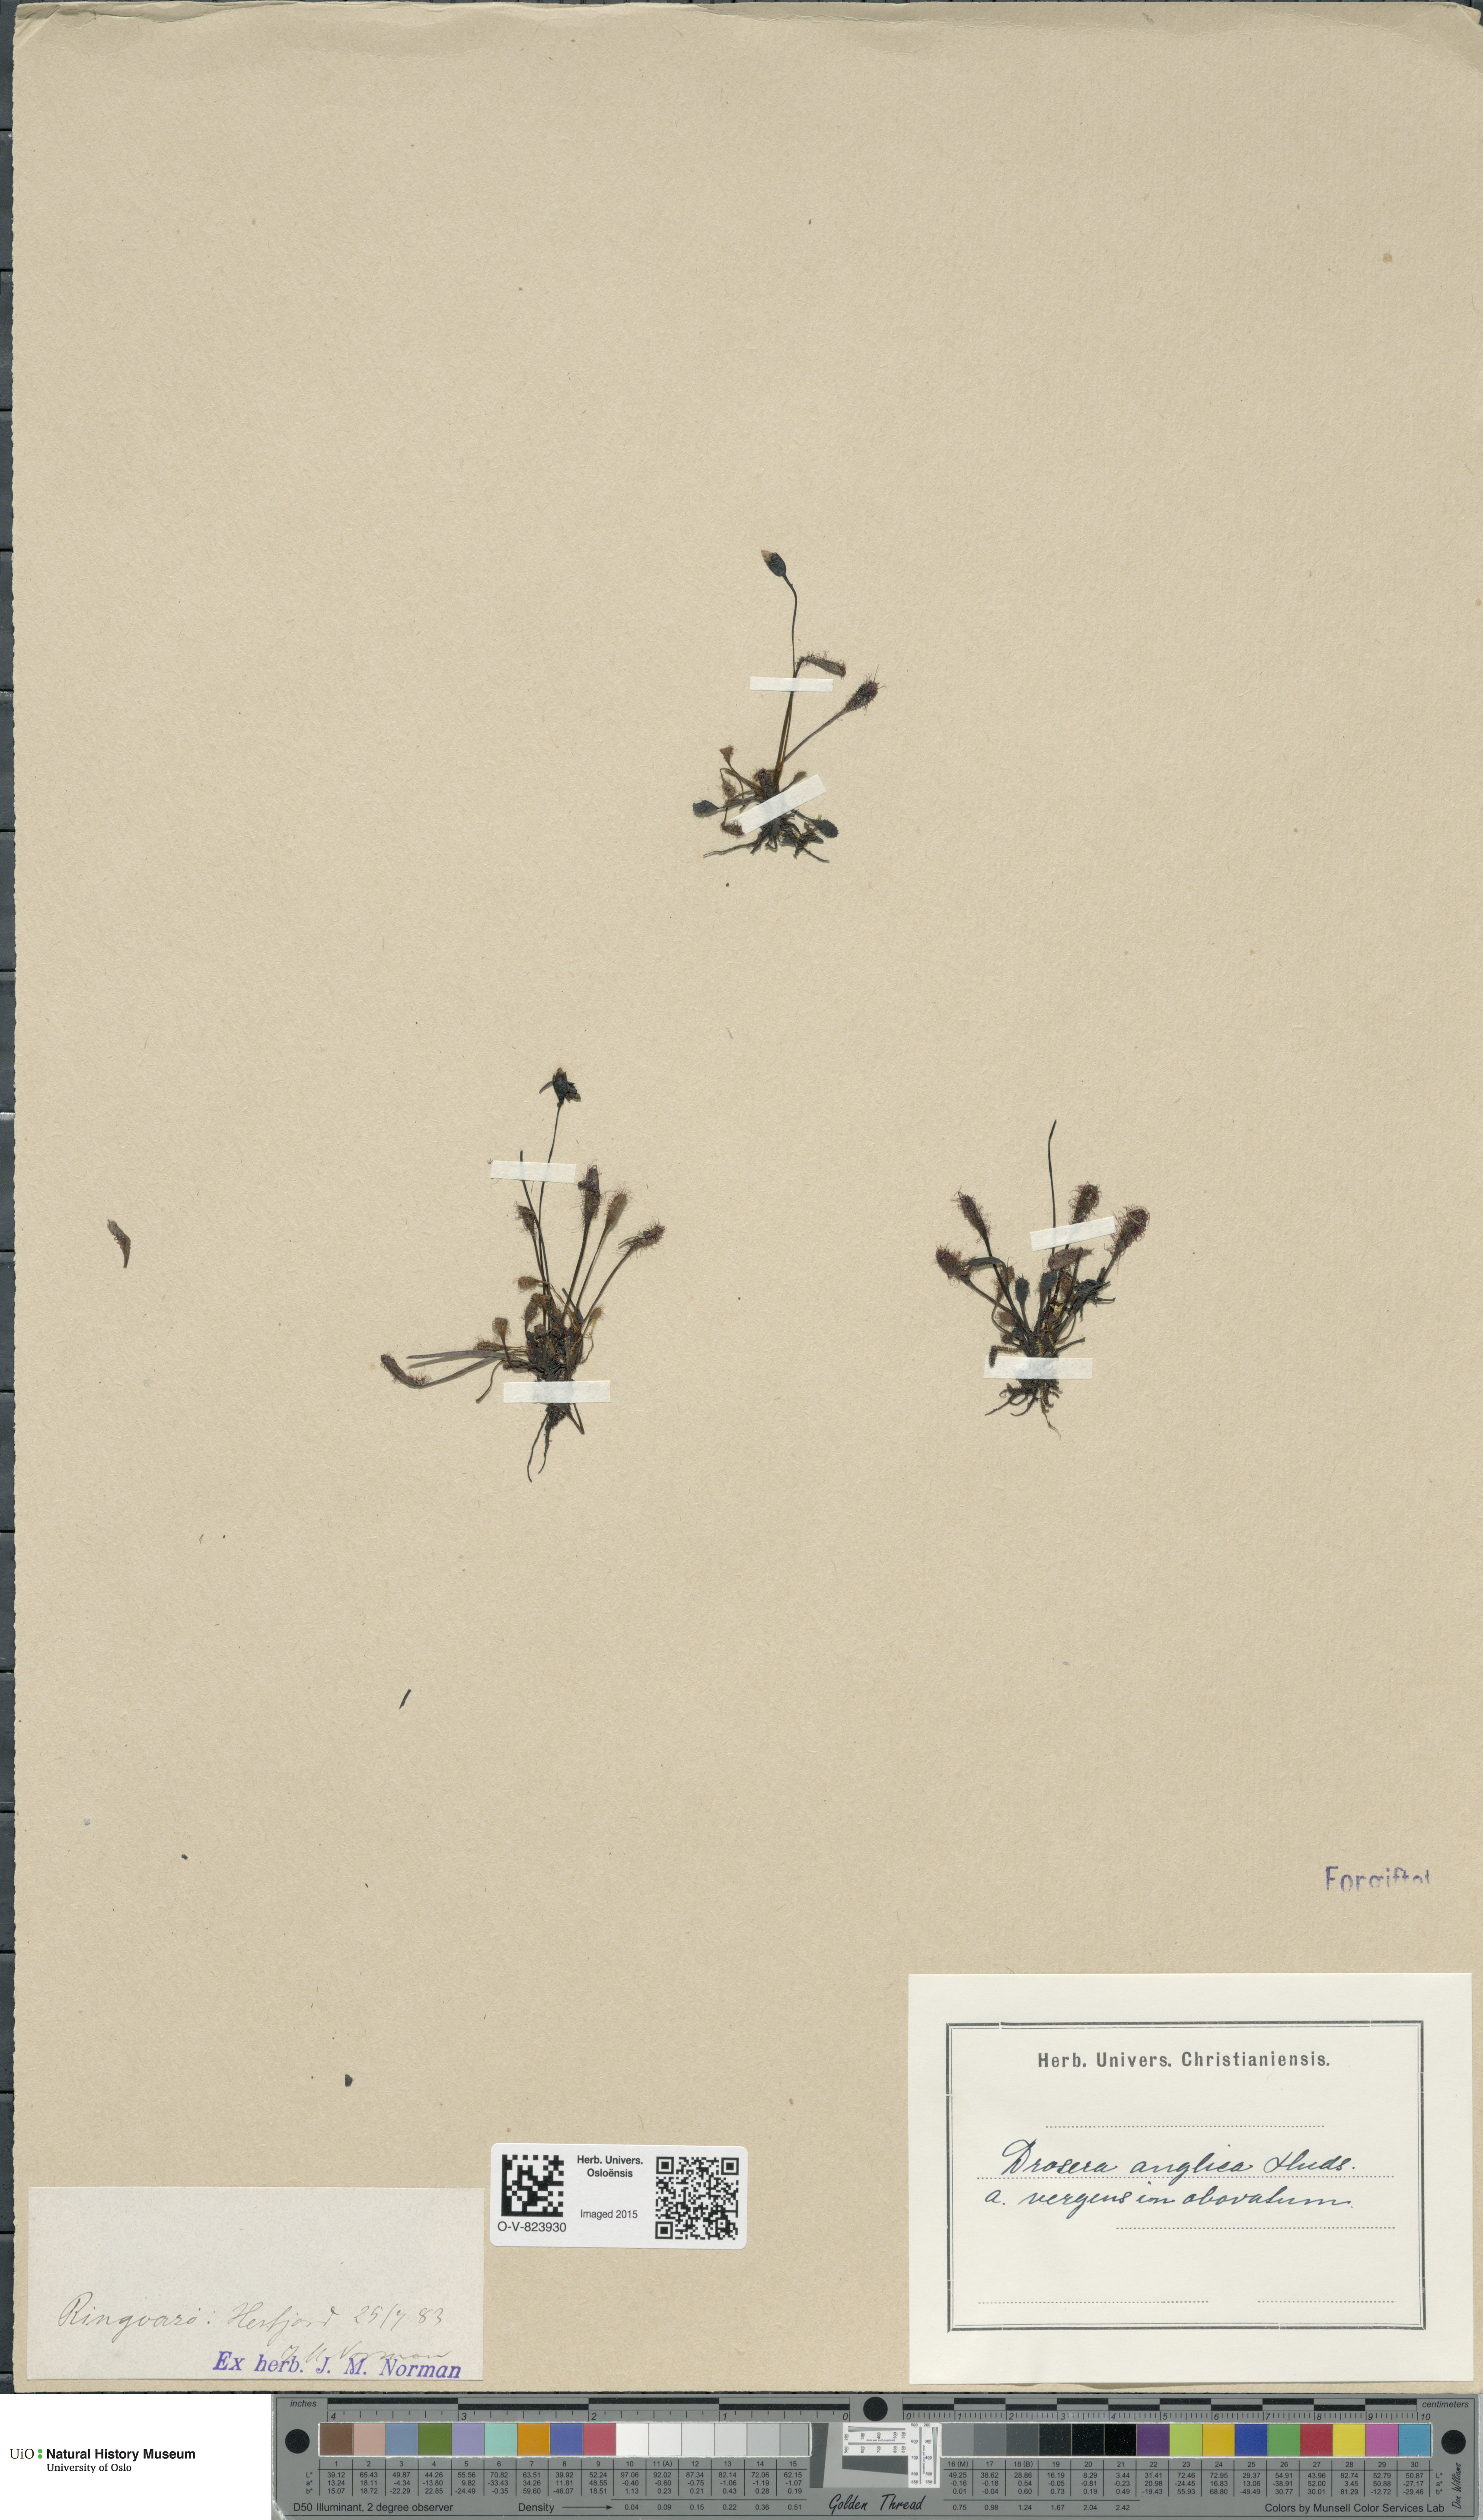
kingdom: Plantae
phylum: Tracheophyta
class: Magnoliopsida
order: Caryophyllales
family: Droseraceae
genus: Drosera
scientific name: Drosera anglica
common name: Great sundew
